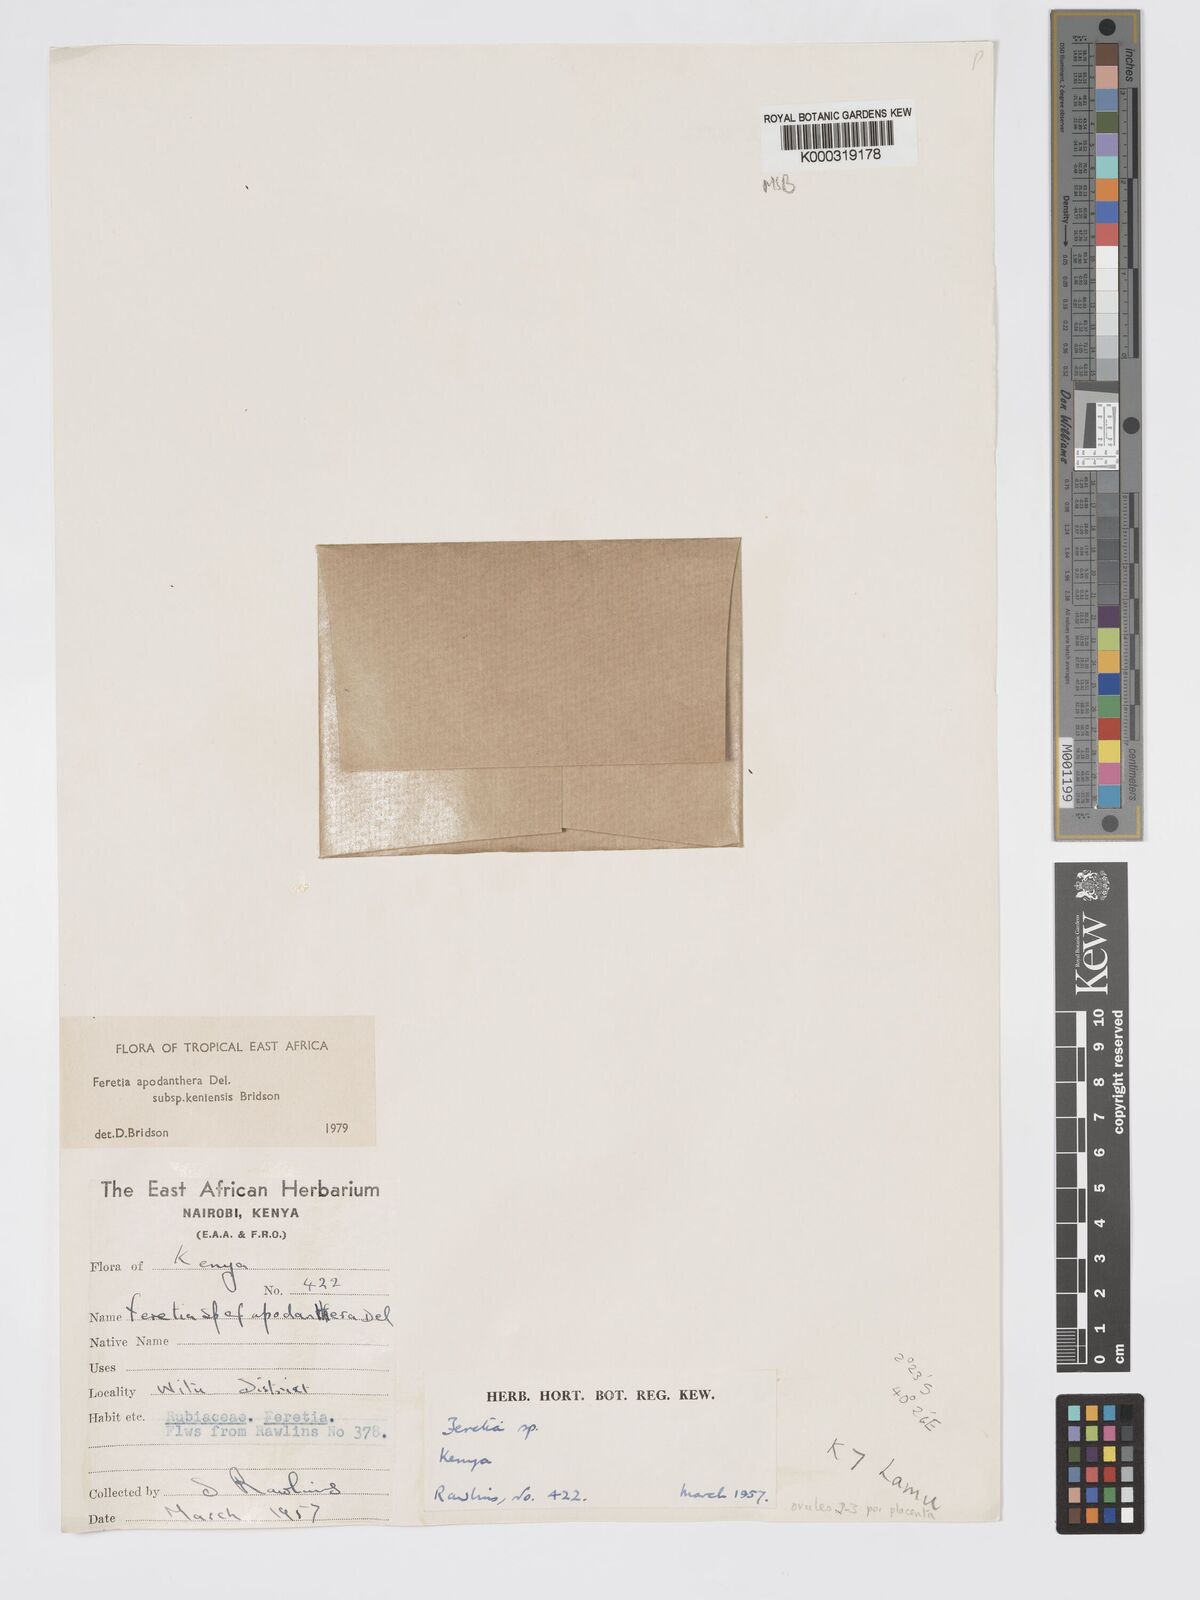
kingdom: Plantae
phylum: Tracheophyta
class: Magnoliopsida
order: Gentianales
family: Rubiaceae
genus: Feretia
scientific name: Feretia apodanthera
